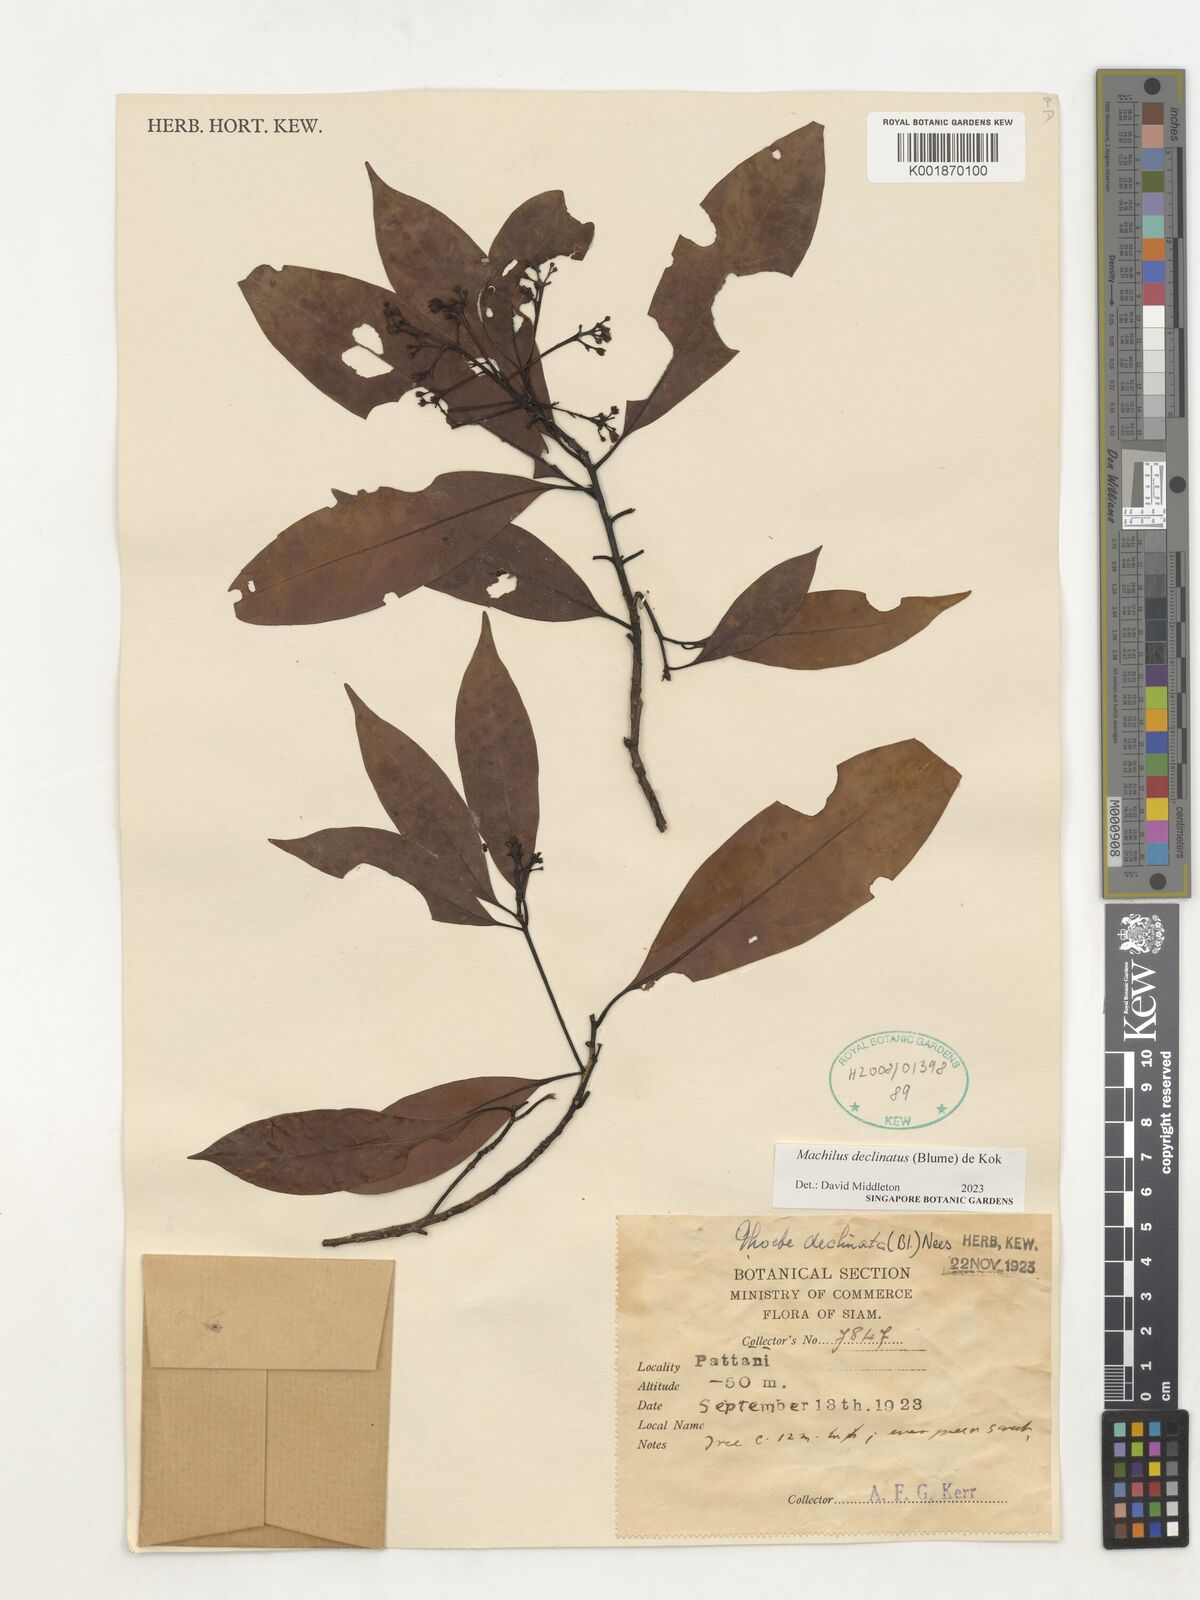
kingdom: Plantae
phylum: Tracheophyta
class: Magnoliopsida
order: Laurales
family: Lauraceae
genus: Machilus
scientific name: Machilus declinata
